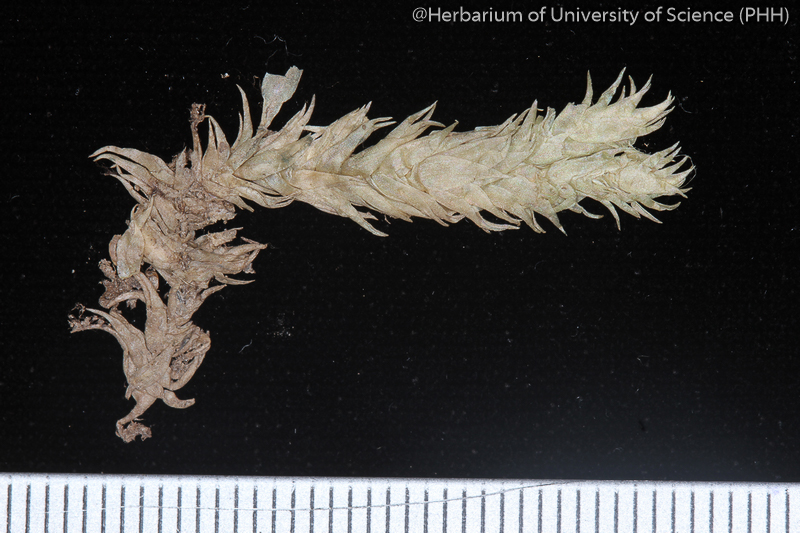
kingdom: Plantae
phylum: Bryophyta
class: Bryopsida
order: Dicranales
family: Leucobryaceae
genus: Leucobryum
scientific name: Leucobryum sanctum
